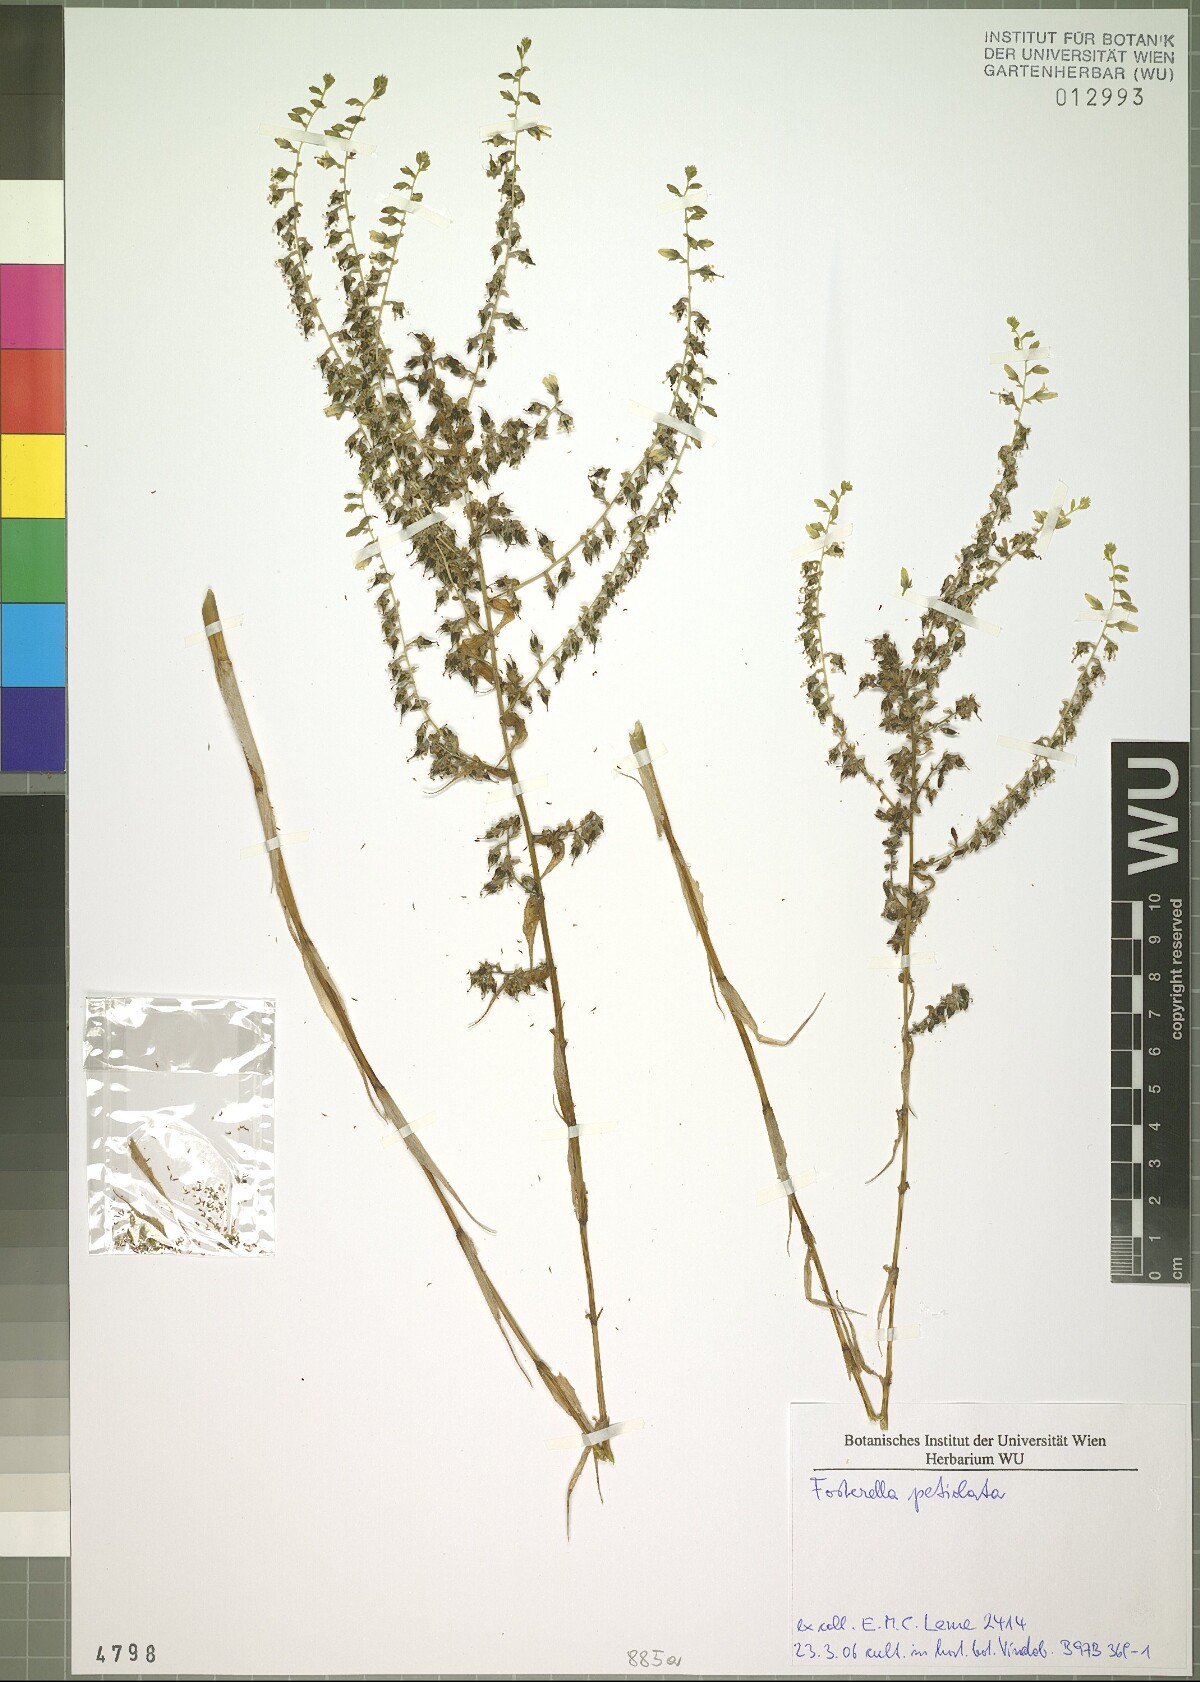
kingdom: Plantae
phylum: Tracheophyta
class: Liliopsida
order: Poales
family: Bromeliaceae
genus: Fosterella
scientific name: Fosterella petiolata
